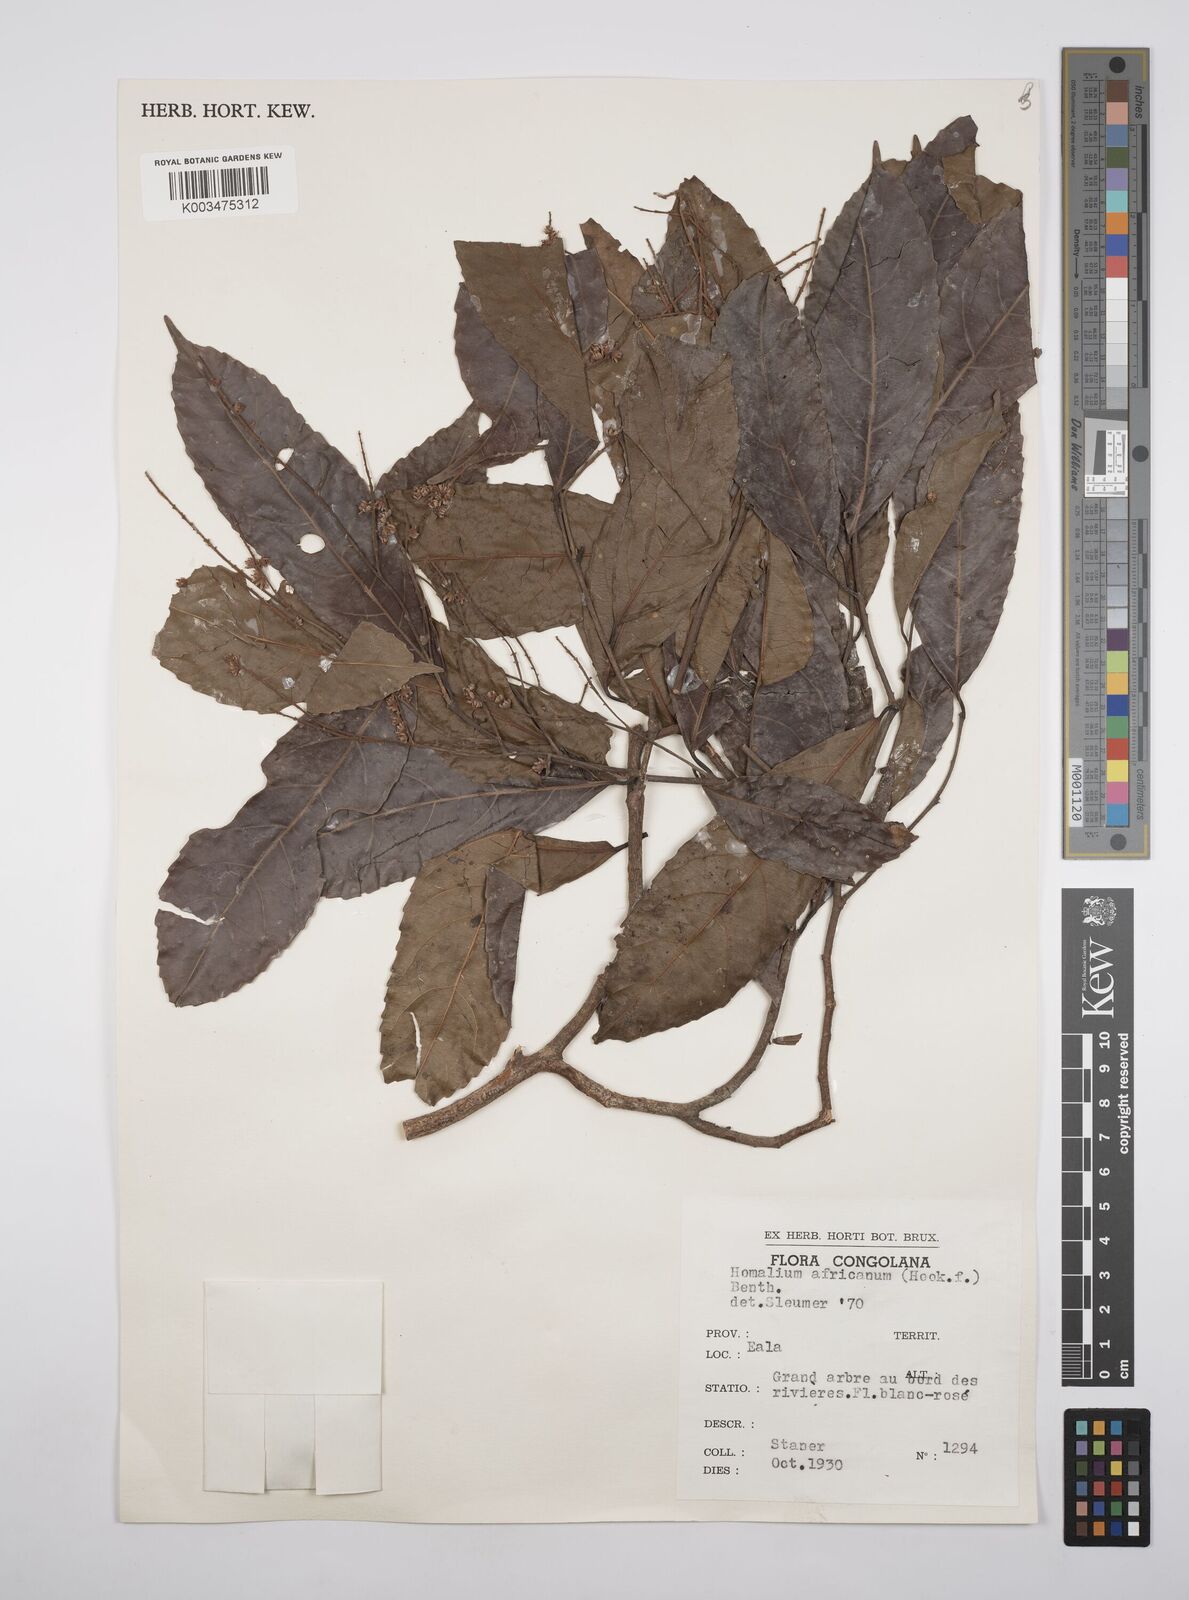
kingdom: Plantae
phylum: Tracheophyta
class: Magnoliopsida
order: Malpighiales
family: Salicaceae
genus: Homalium
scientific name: Homalium africanum
